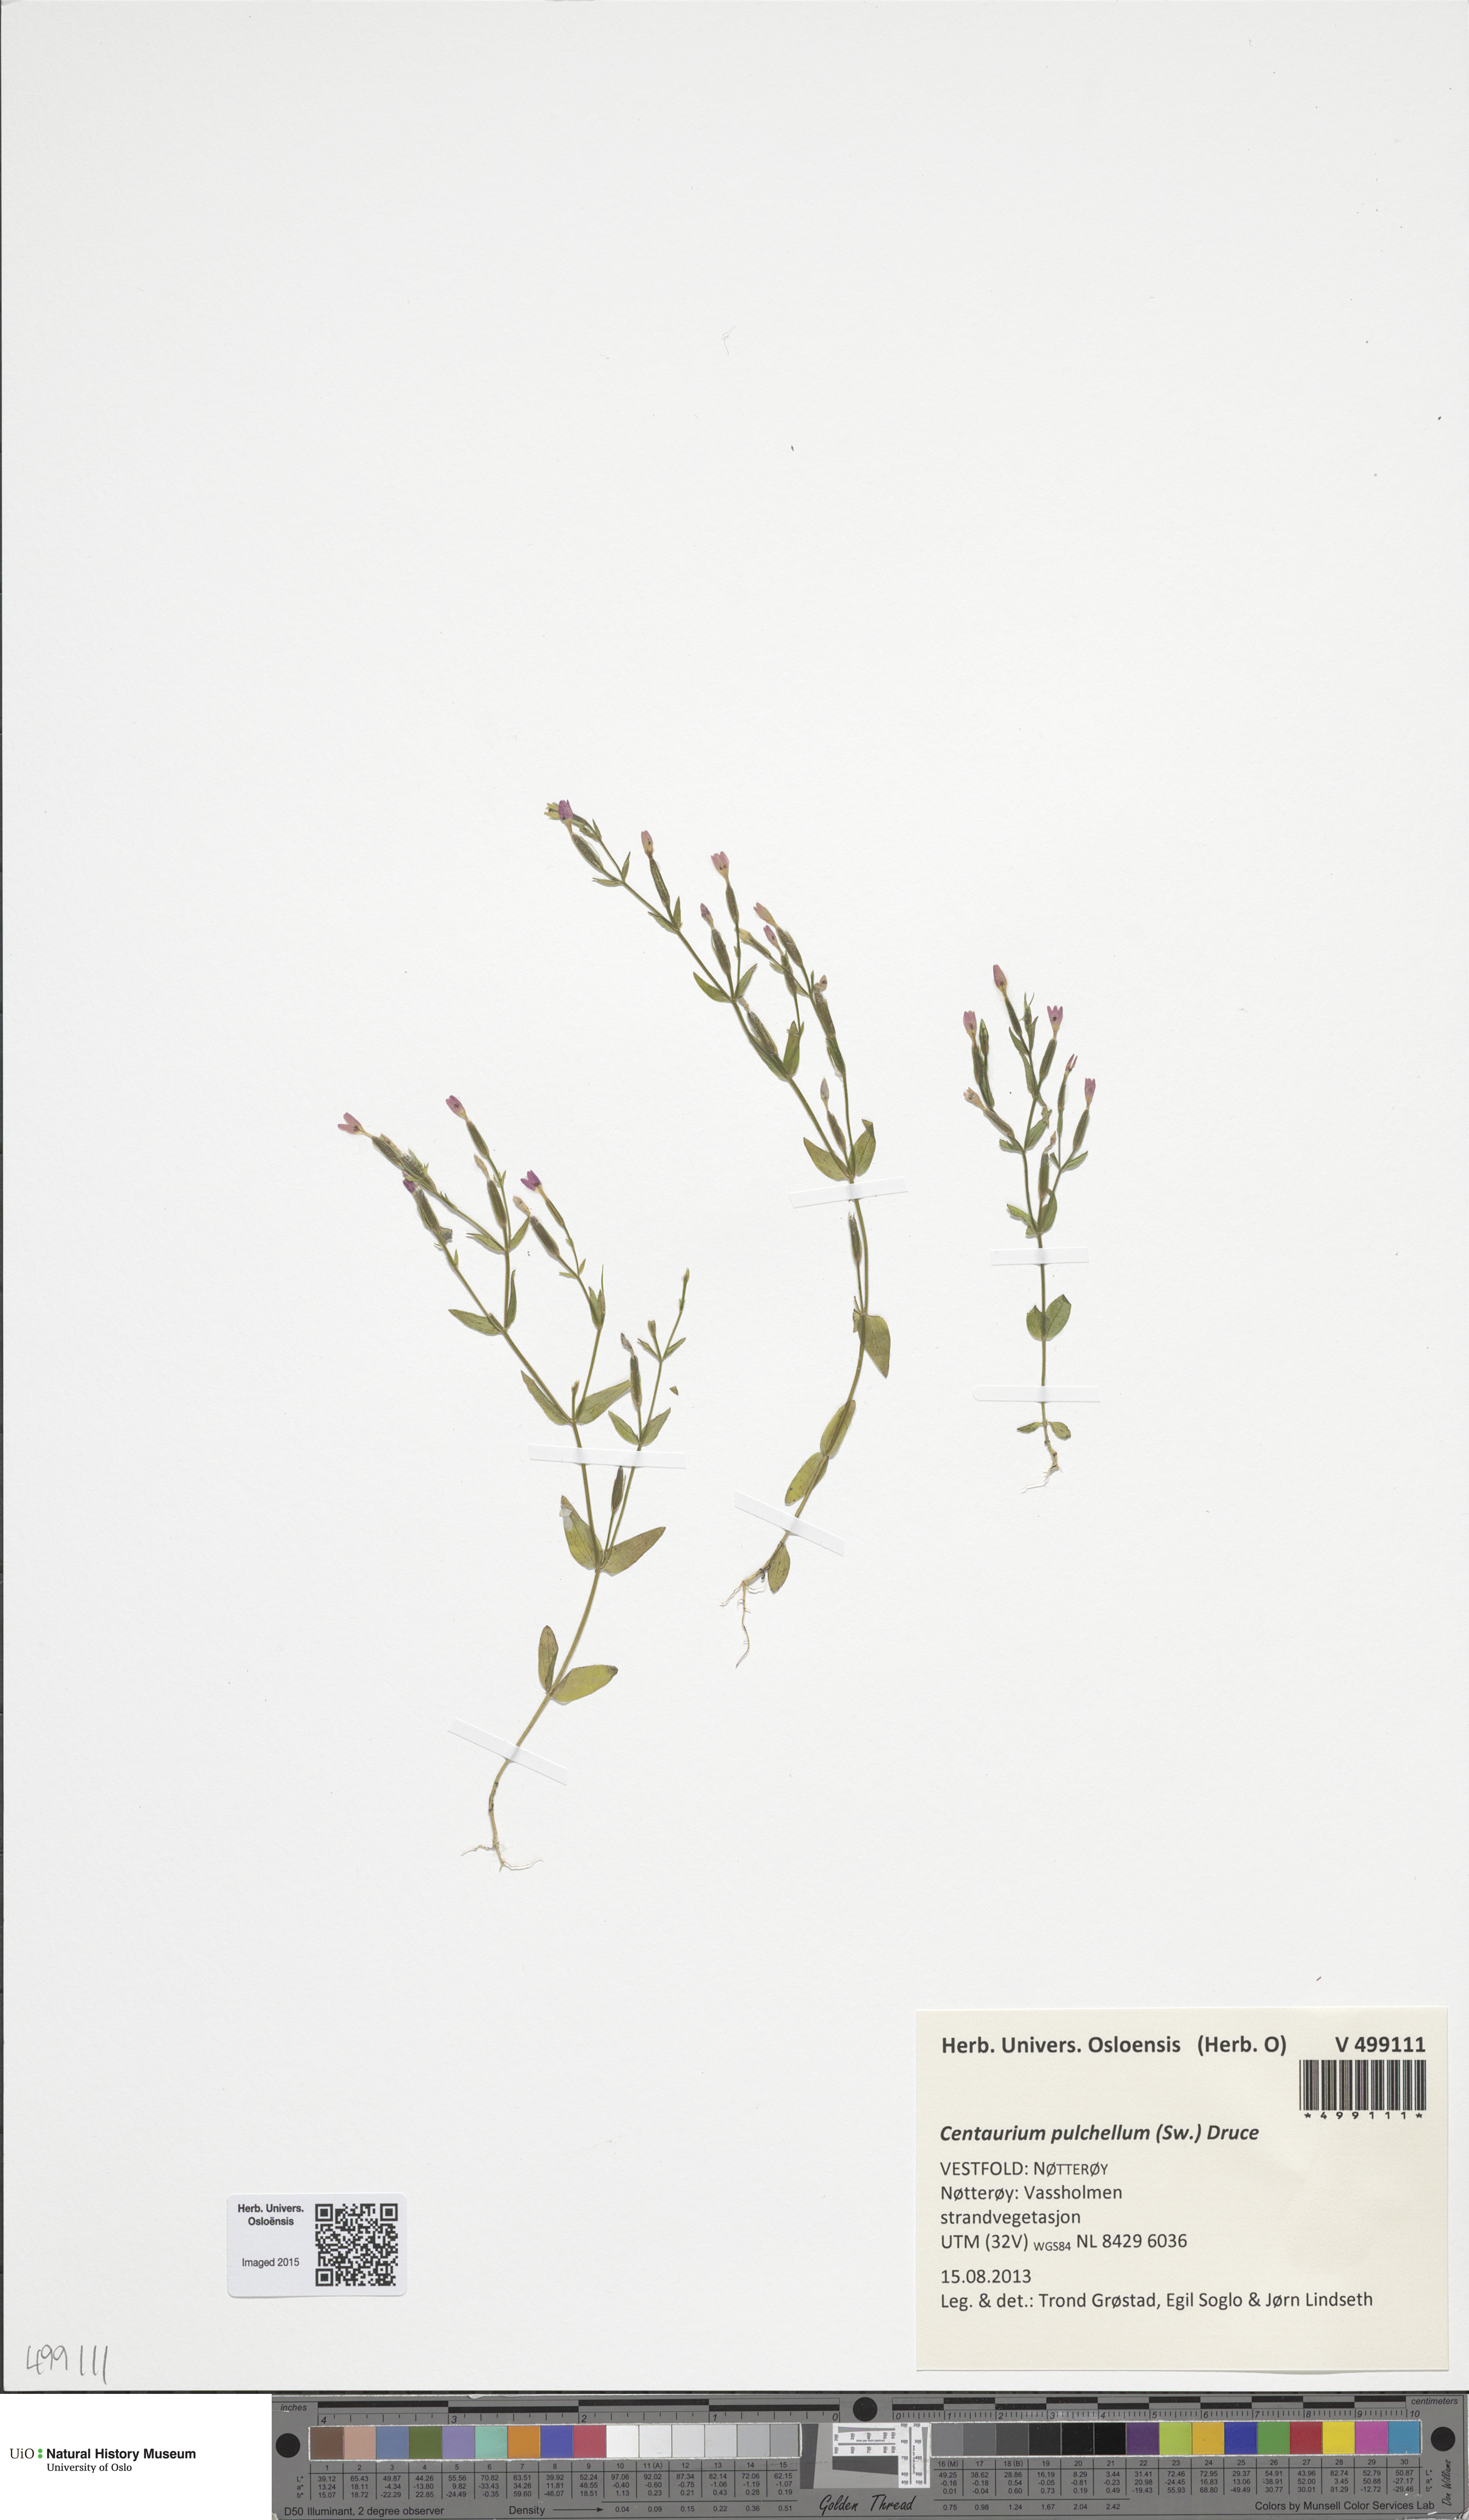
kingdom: Plantae
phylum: Tracheophyta
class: Magnoliopsida
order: Gentianales
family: Gentianaceae
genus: Centaurium
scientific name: Centaurium pulchellum
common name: Lesser centaury
